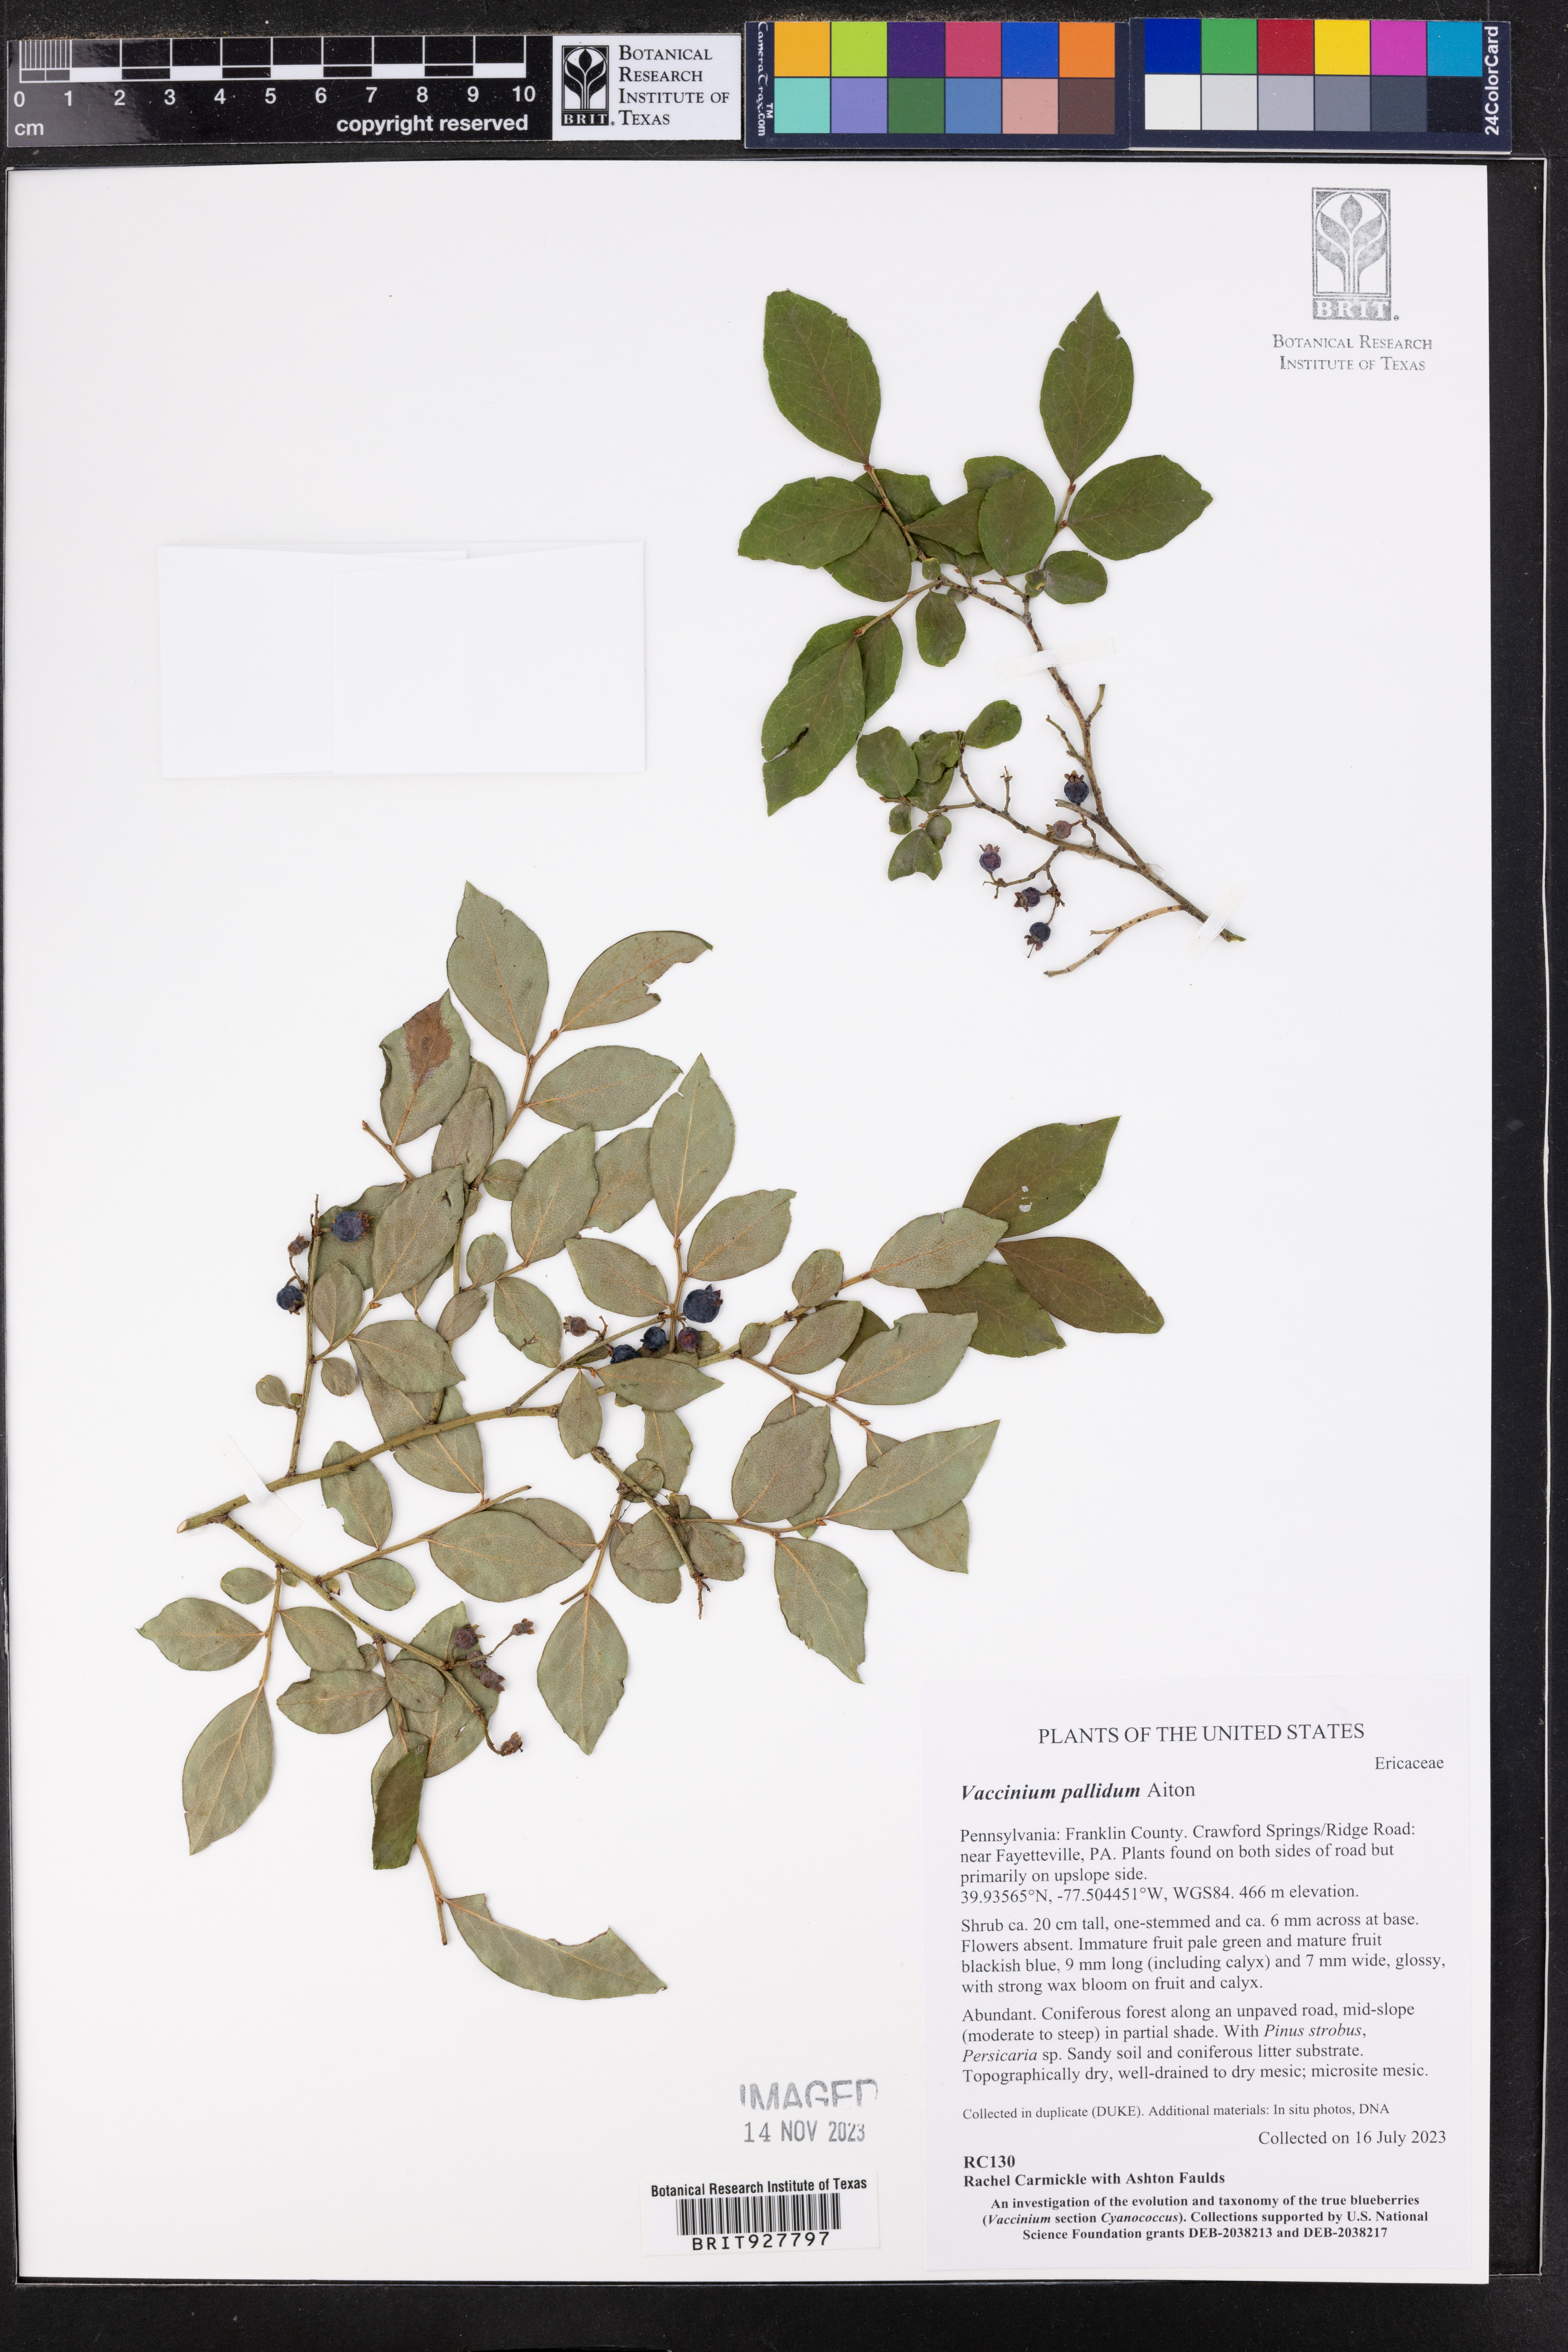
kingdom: Plantae
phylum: Tracheophyta
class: Magnoliopsida
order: Ericales
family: Ericaceae
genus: Vaccinium
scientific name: Vaccinium pallidum
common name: Blue ridge blueberry
